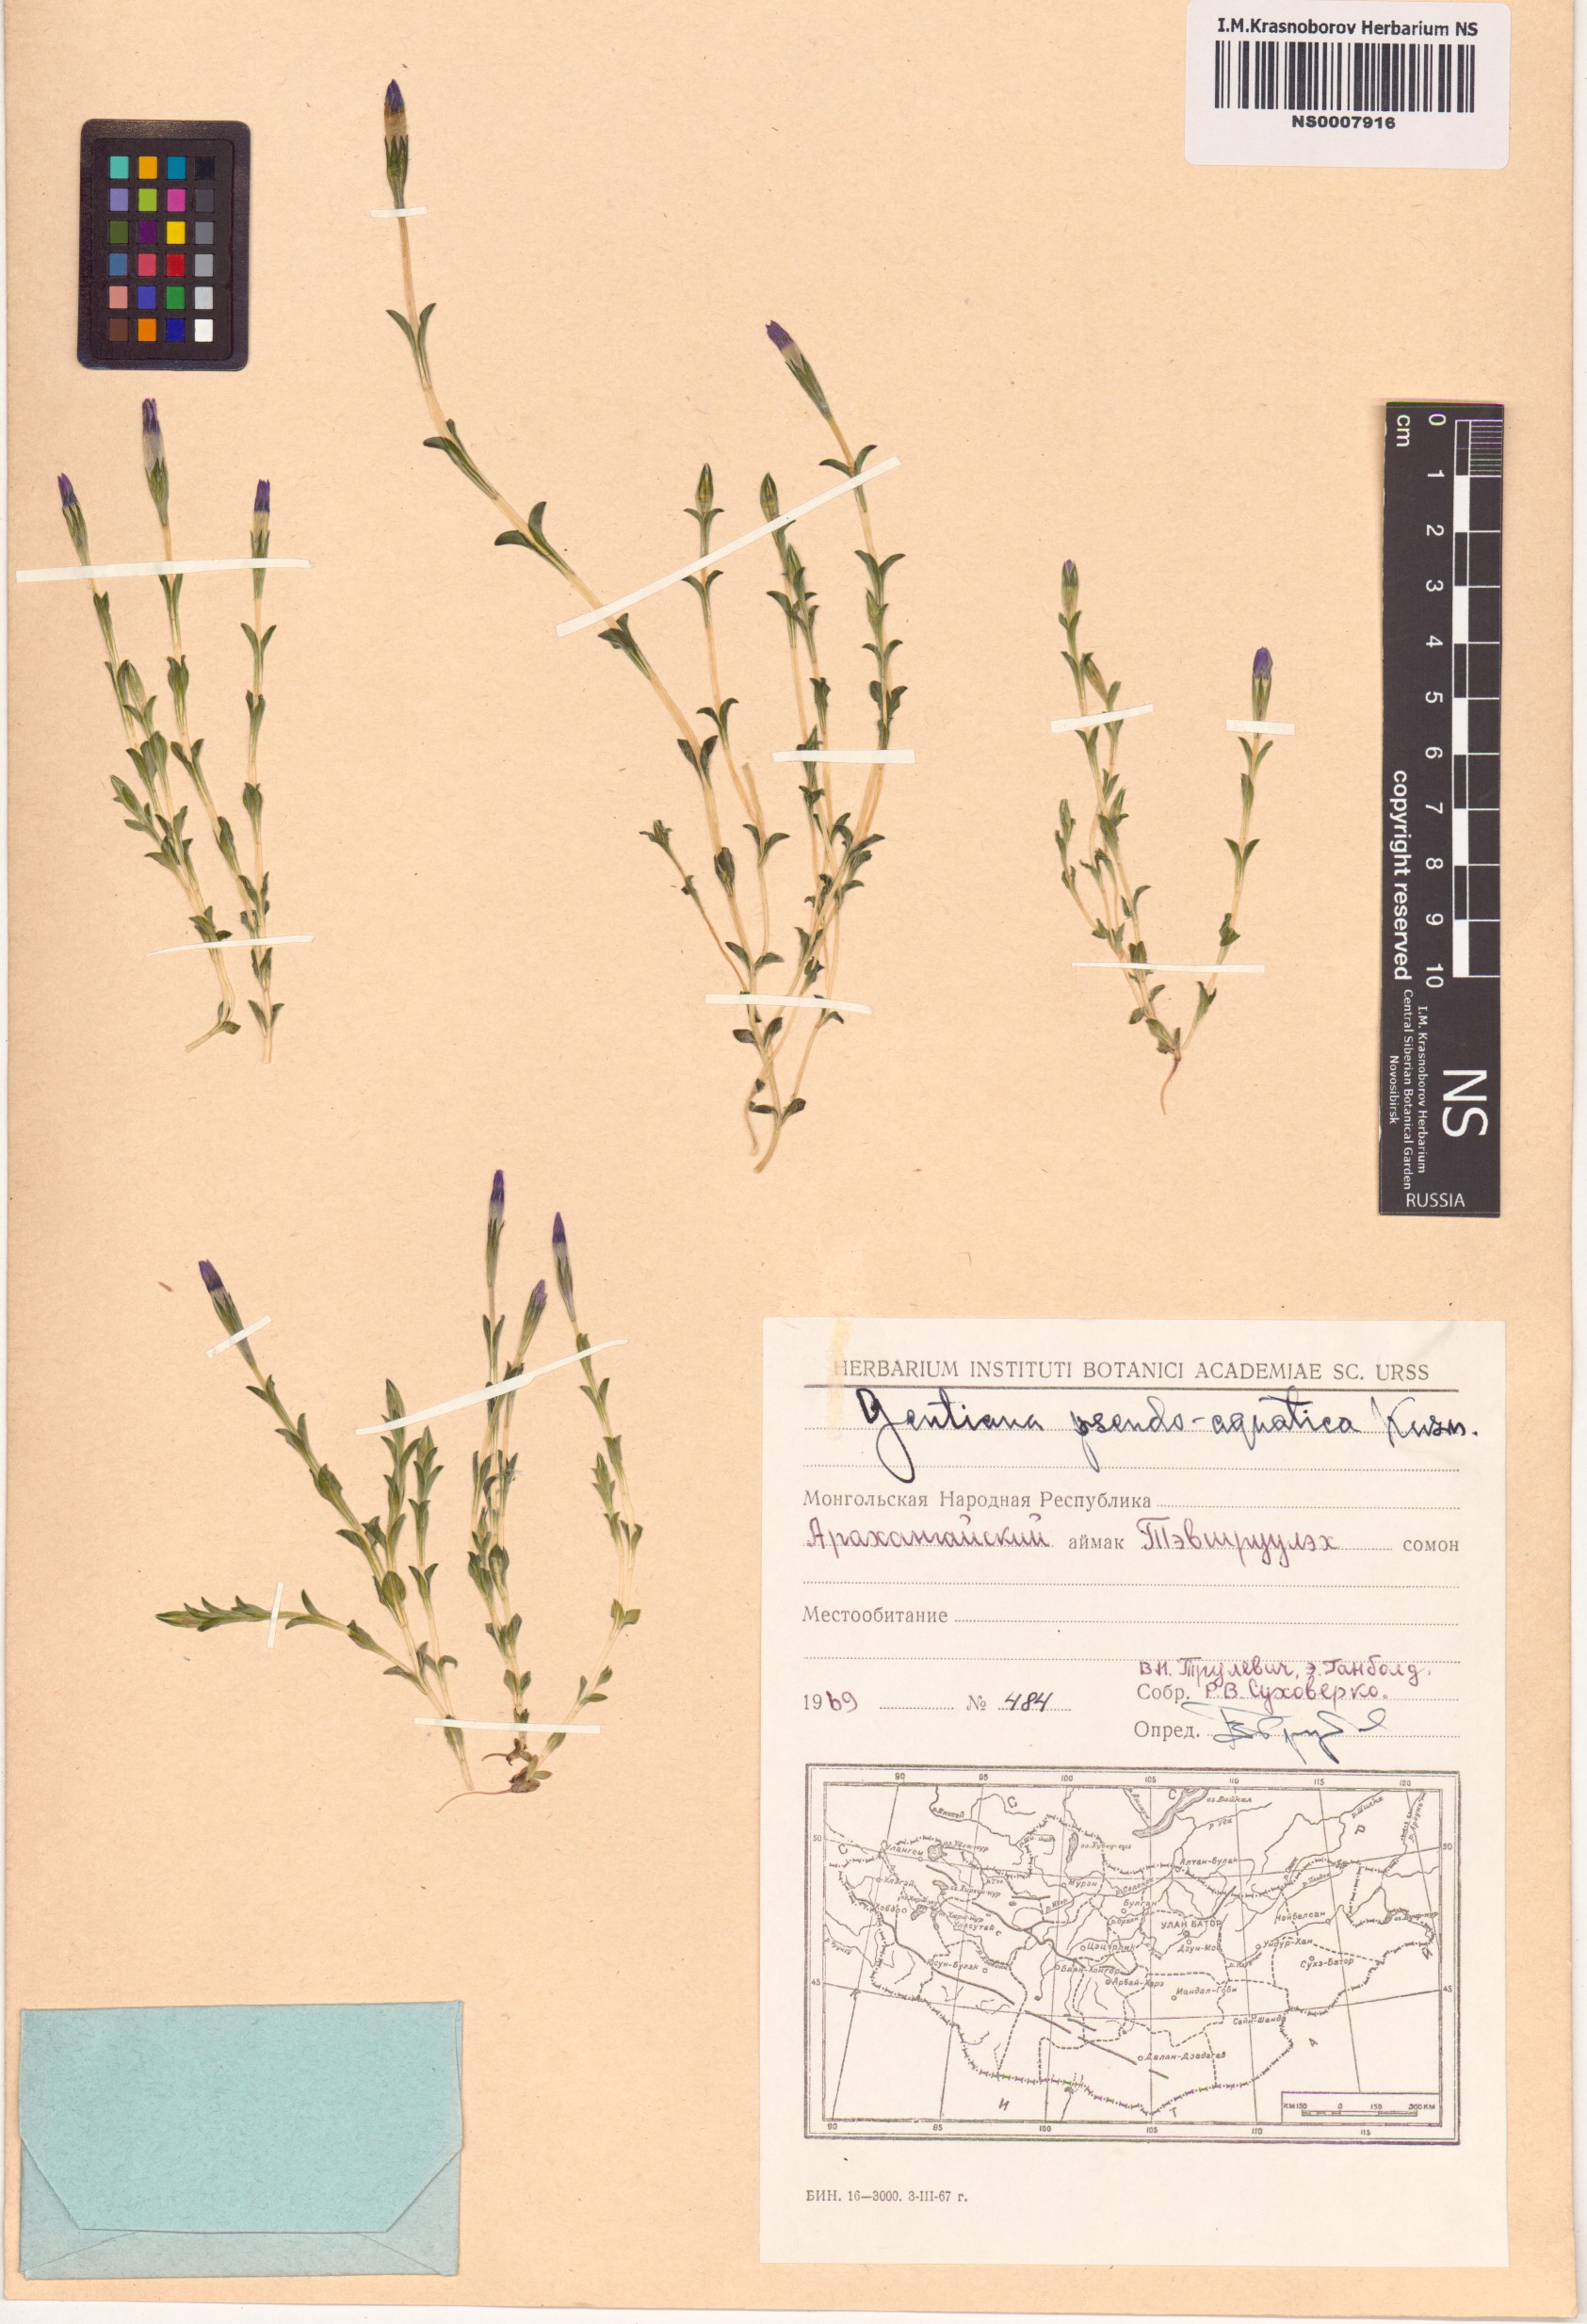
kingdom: Plantae
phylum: Tracheophyta
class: Magnoliopsida
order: Gentianales
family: Gentianaceae
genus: Gentiana
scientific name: Gentiana pseudoaquatica
